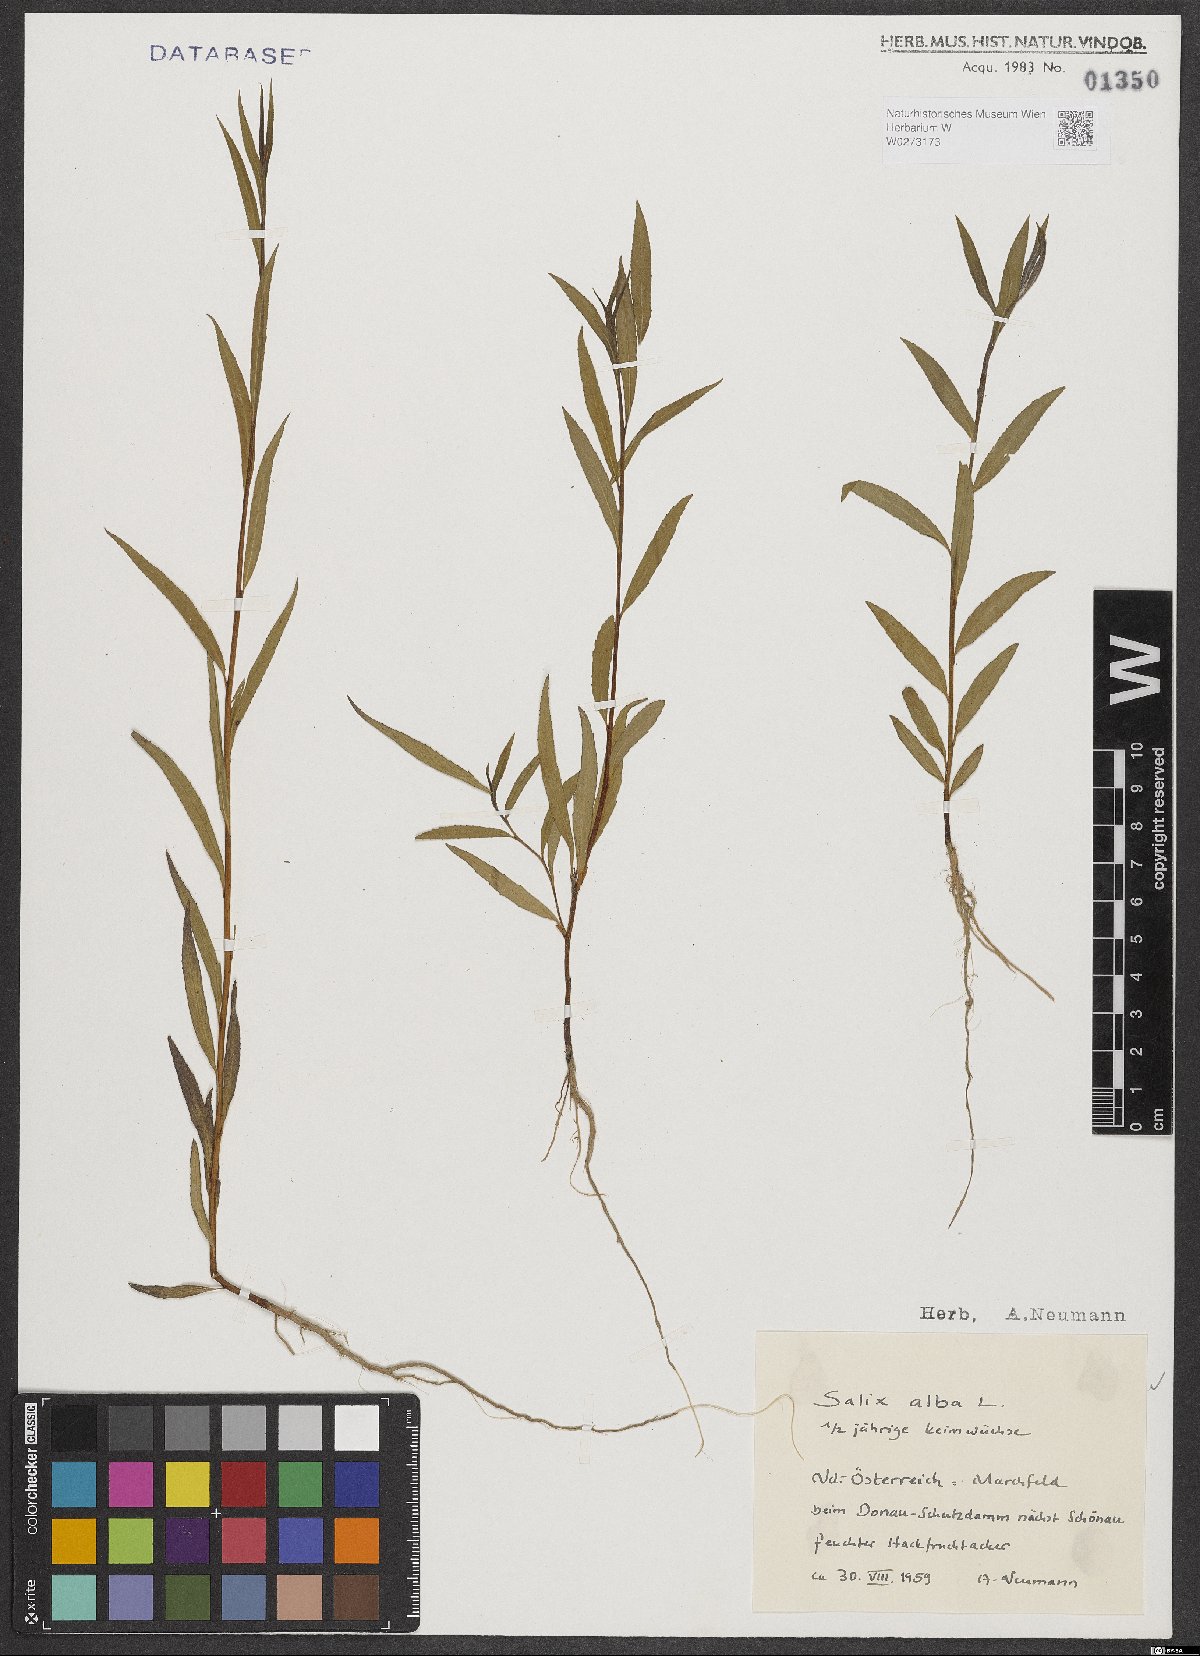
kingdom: Plantae
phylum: Tracheophyta
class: Magnoliopsida
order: Malpighiales
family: Salicaceae
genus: Salix
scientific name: Salix alba
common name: White willow
